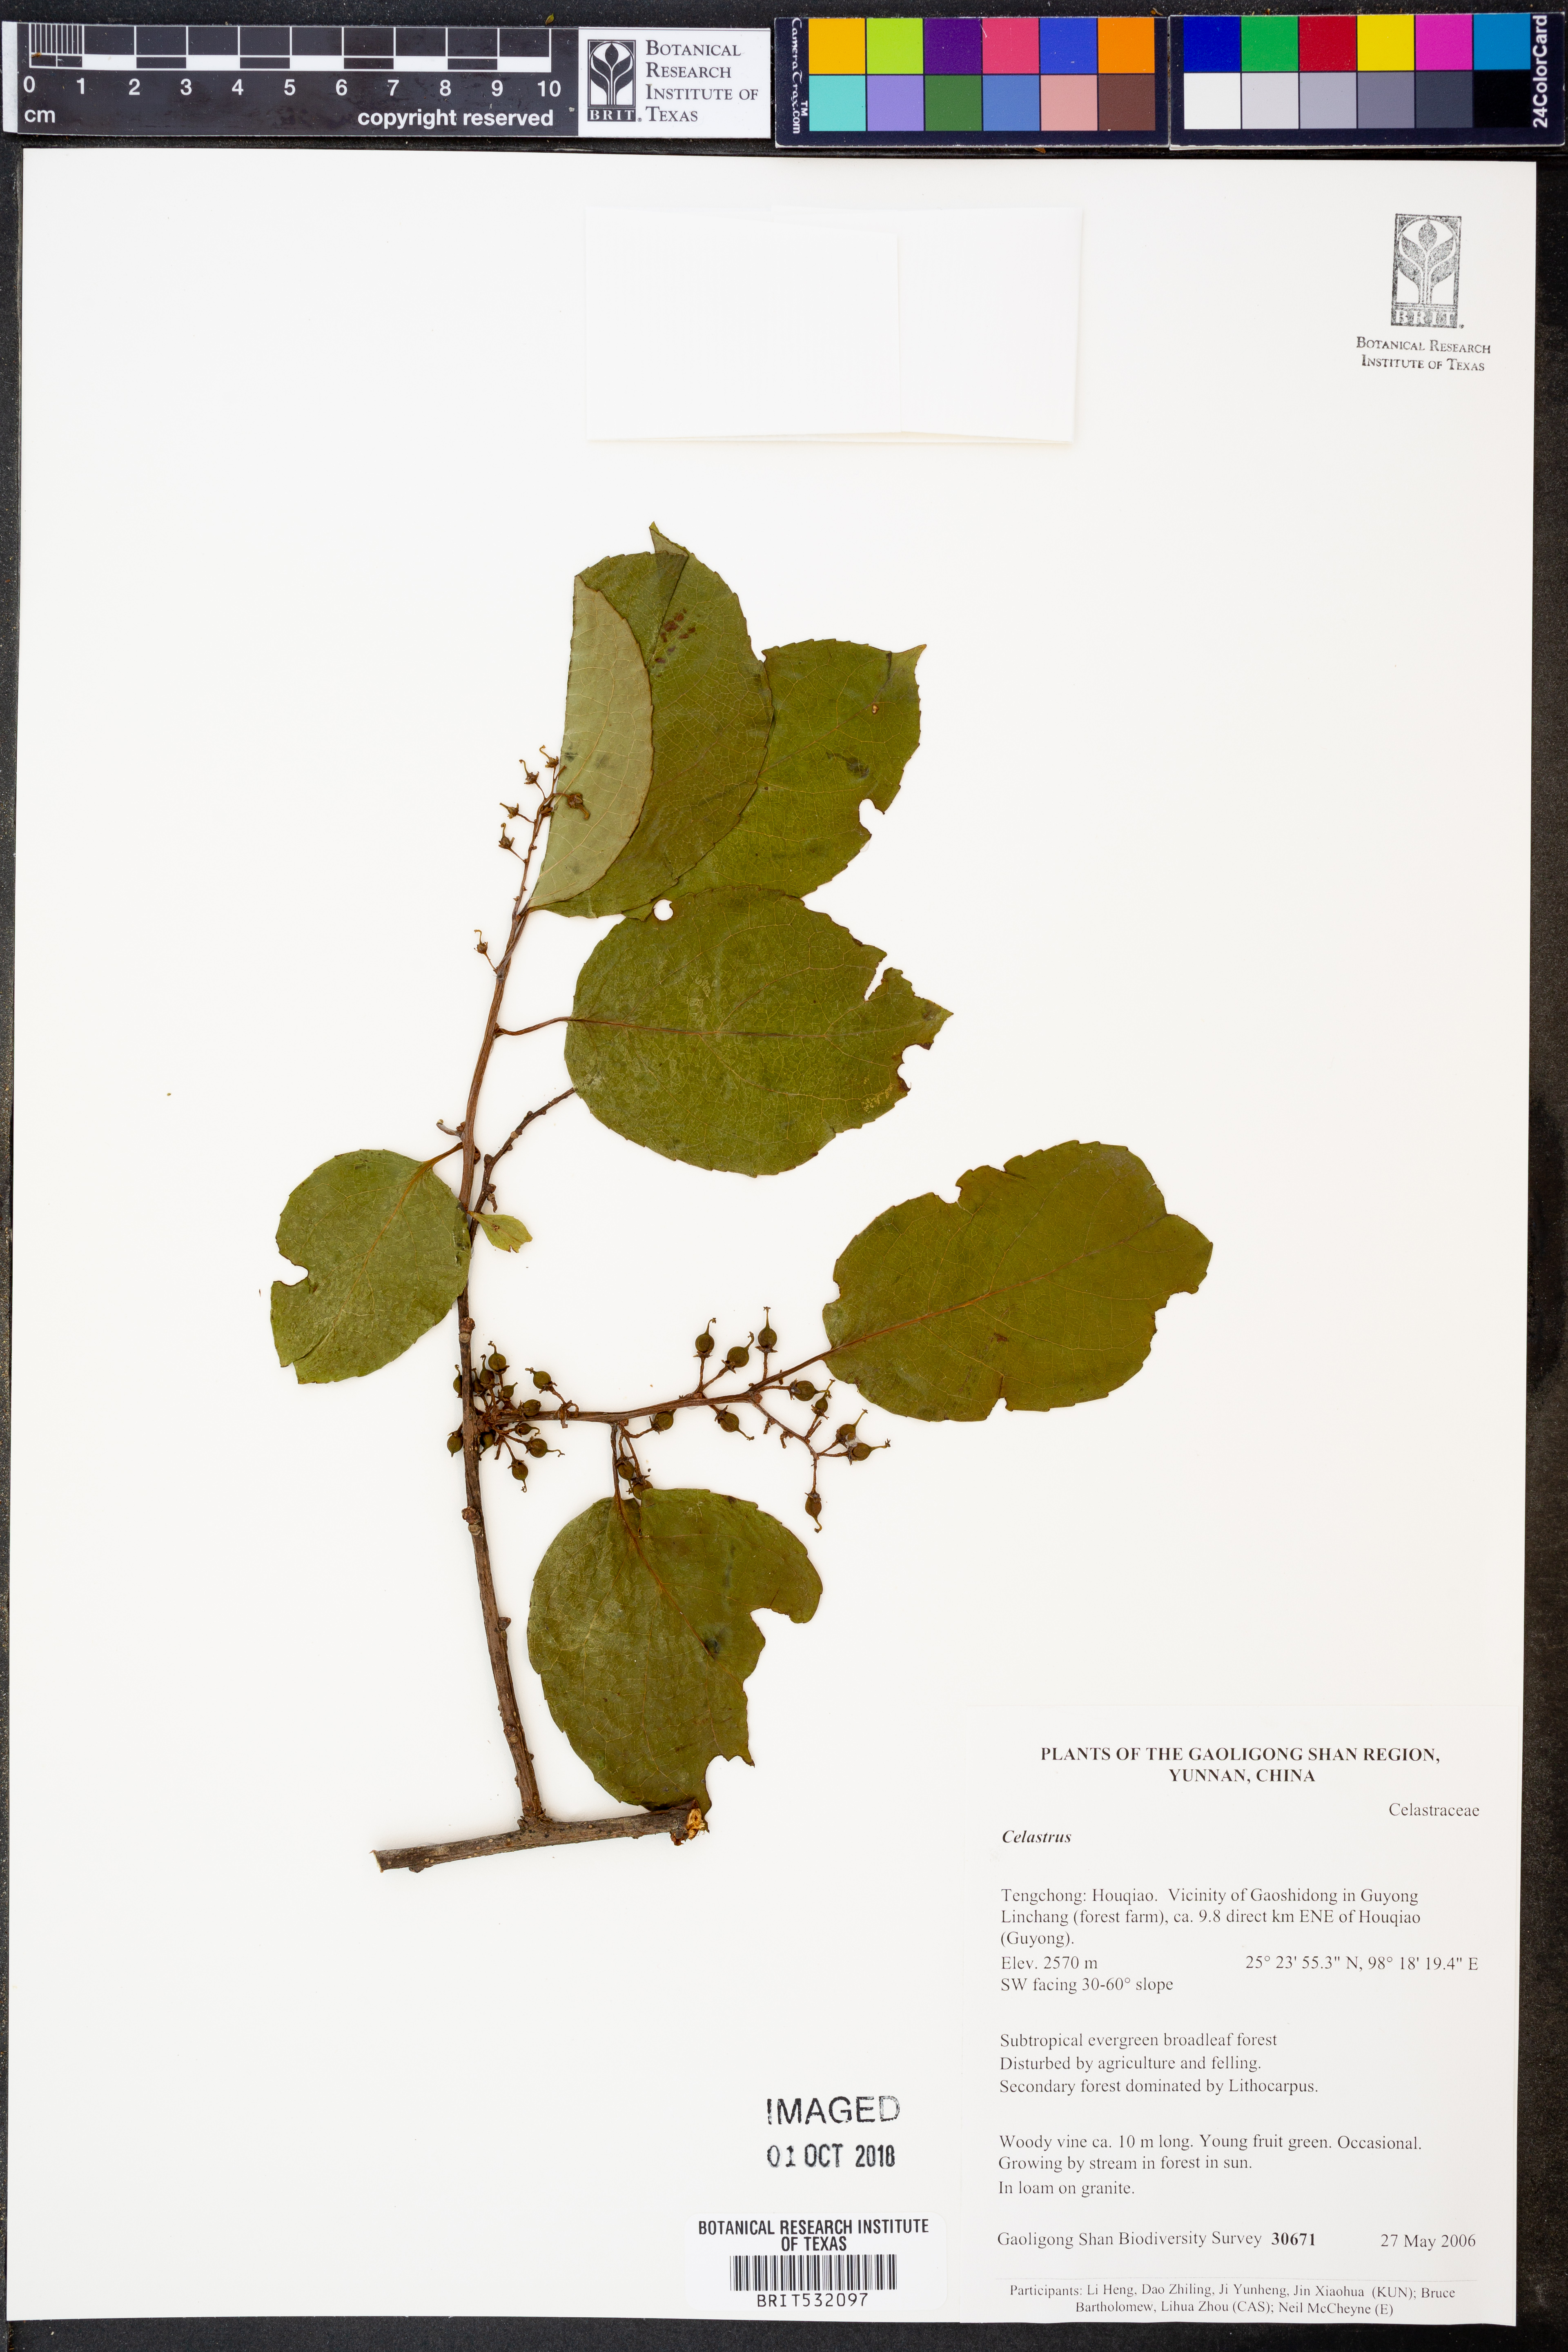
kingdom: Plantae
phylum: Tracheophyta
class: Magnoliopsida
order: Celastrales
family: Celastraceae
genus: Celastrus
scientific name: Celastrus
